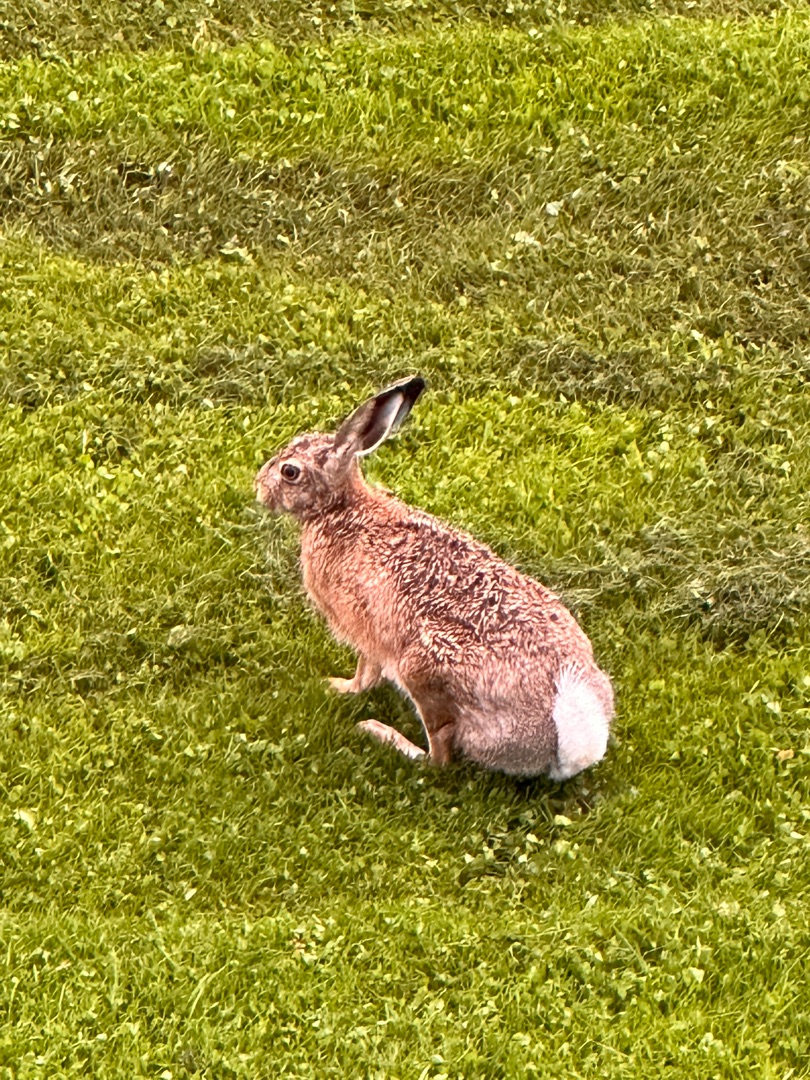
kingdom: Animalia
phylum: Chordata
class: Mammalia
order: Lagomorpha
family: Leporidae
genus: Lepus
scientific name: Lepus europaeus
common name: Hare
